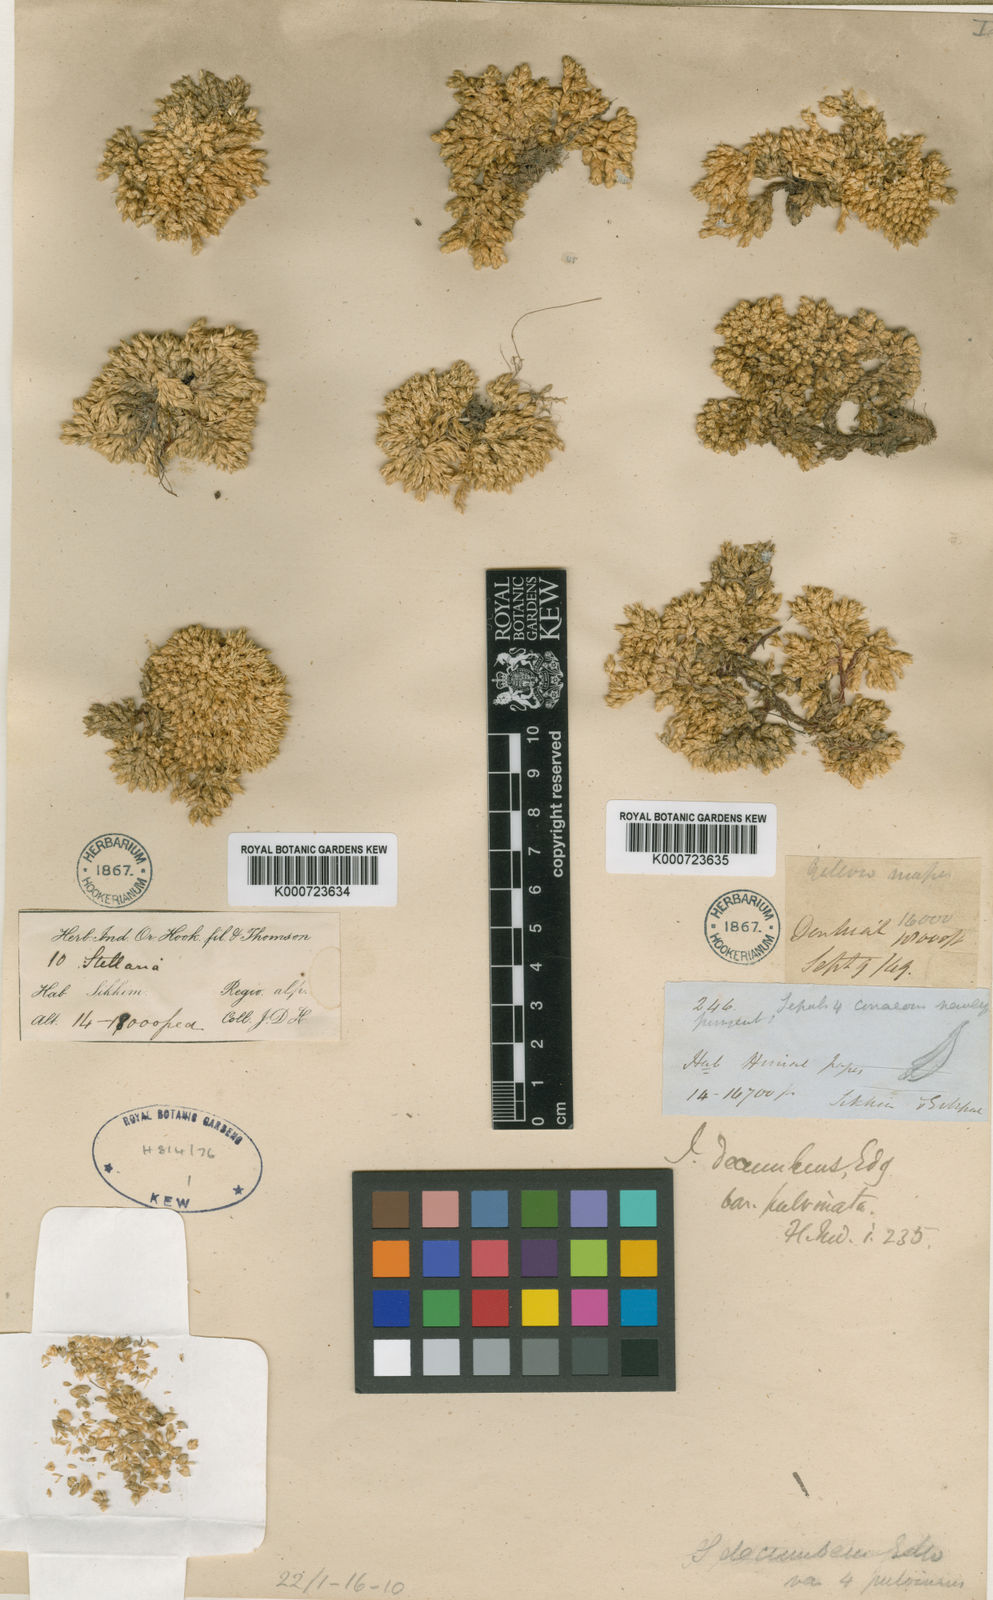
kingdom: Plantae
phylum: Tracheophyta
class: Magnoliopsida
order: Caryophyllales
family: Caryophyllaceae
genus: Stellaria
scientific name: Stellaria decumbens
